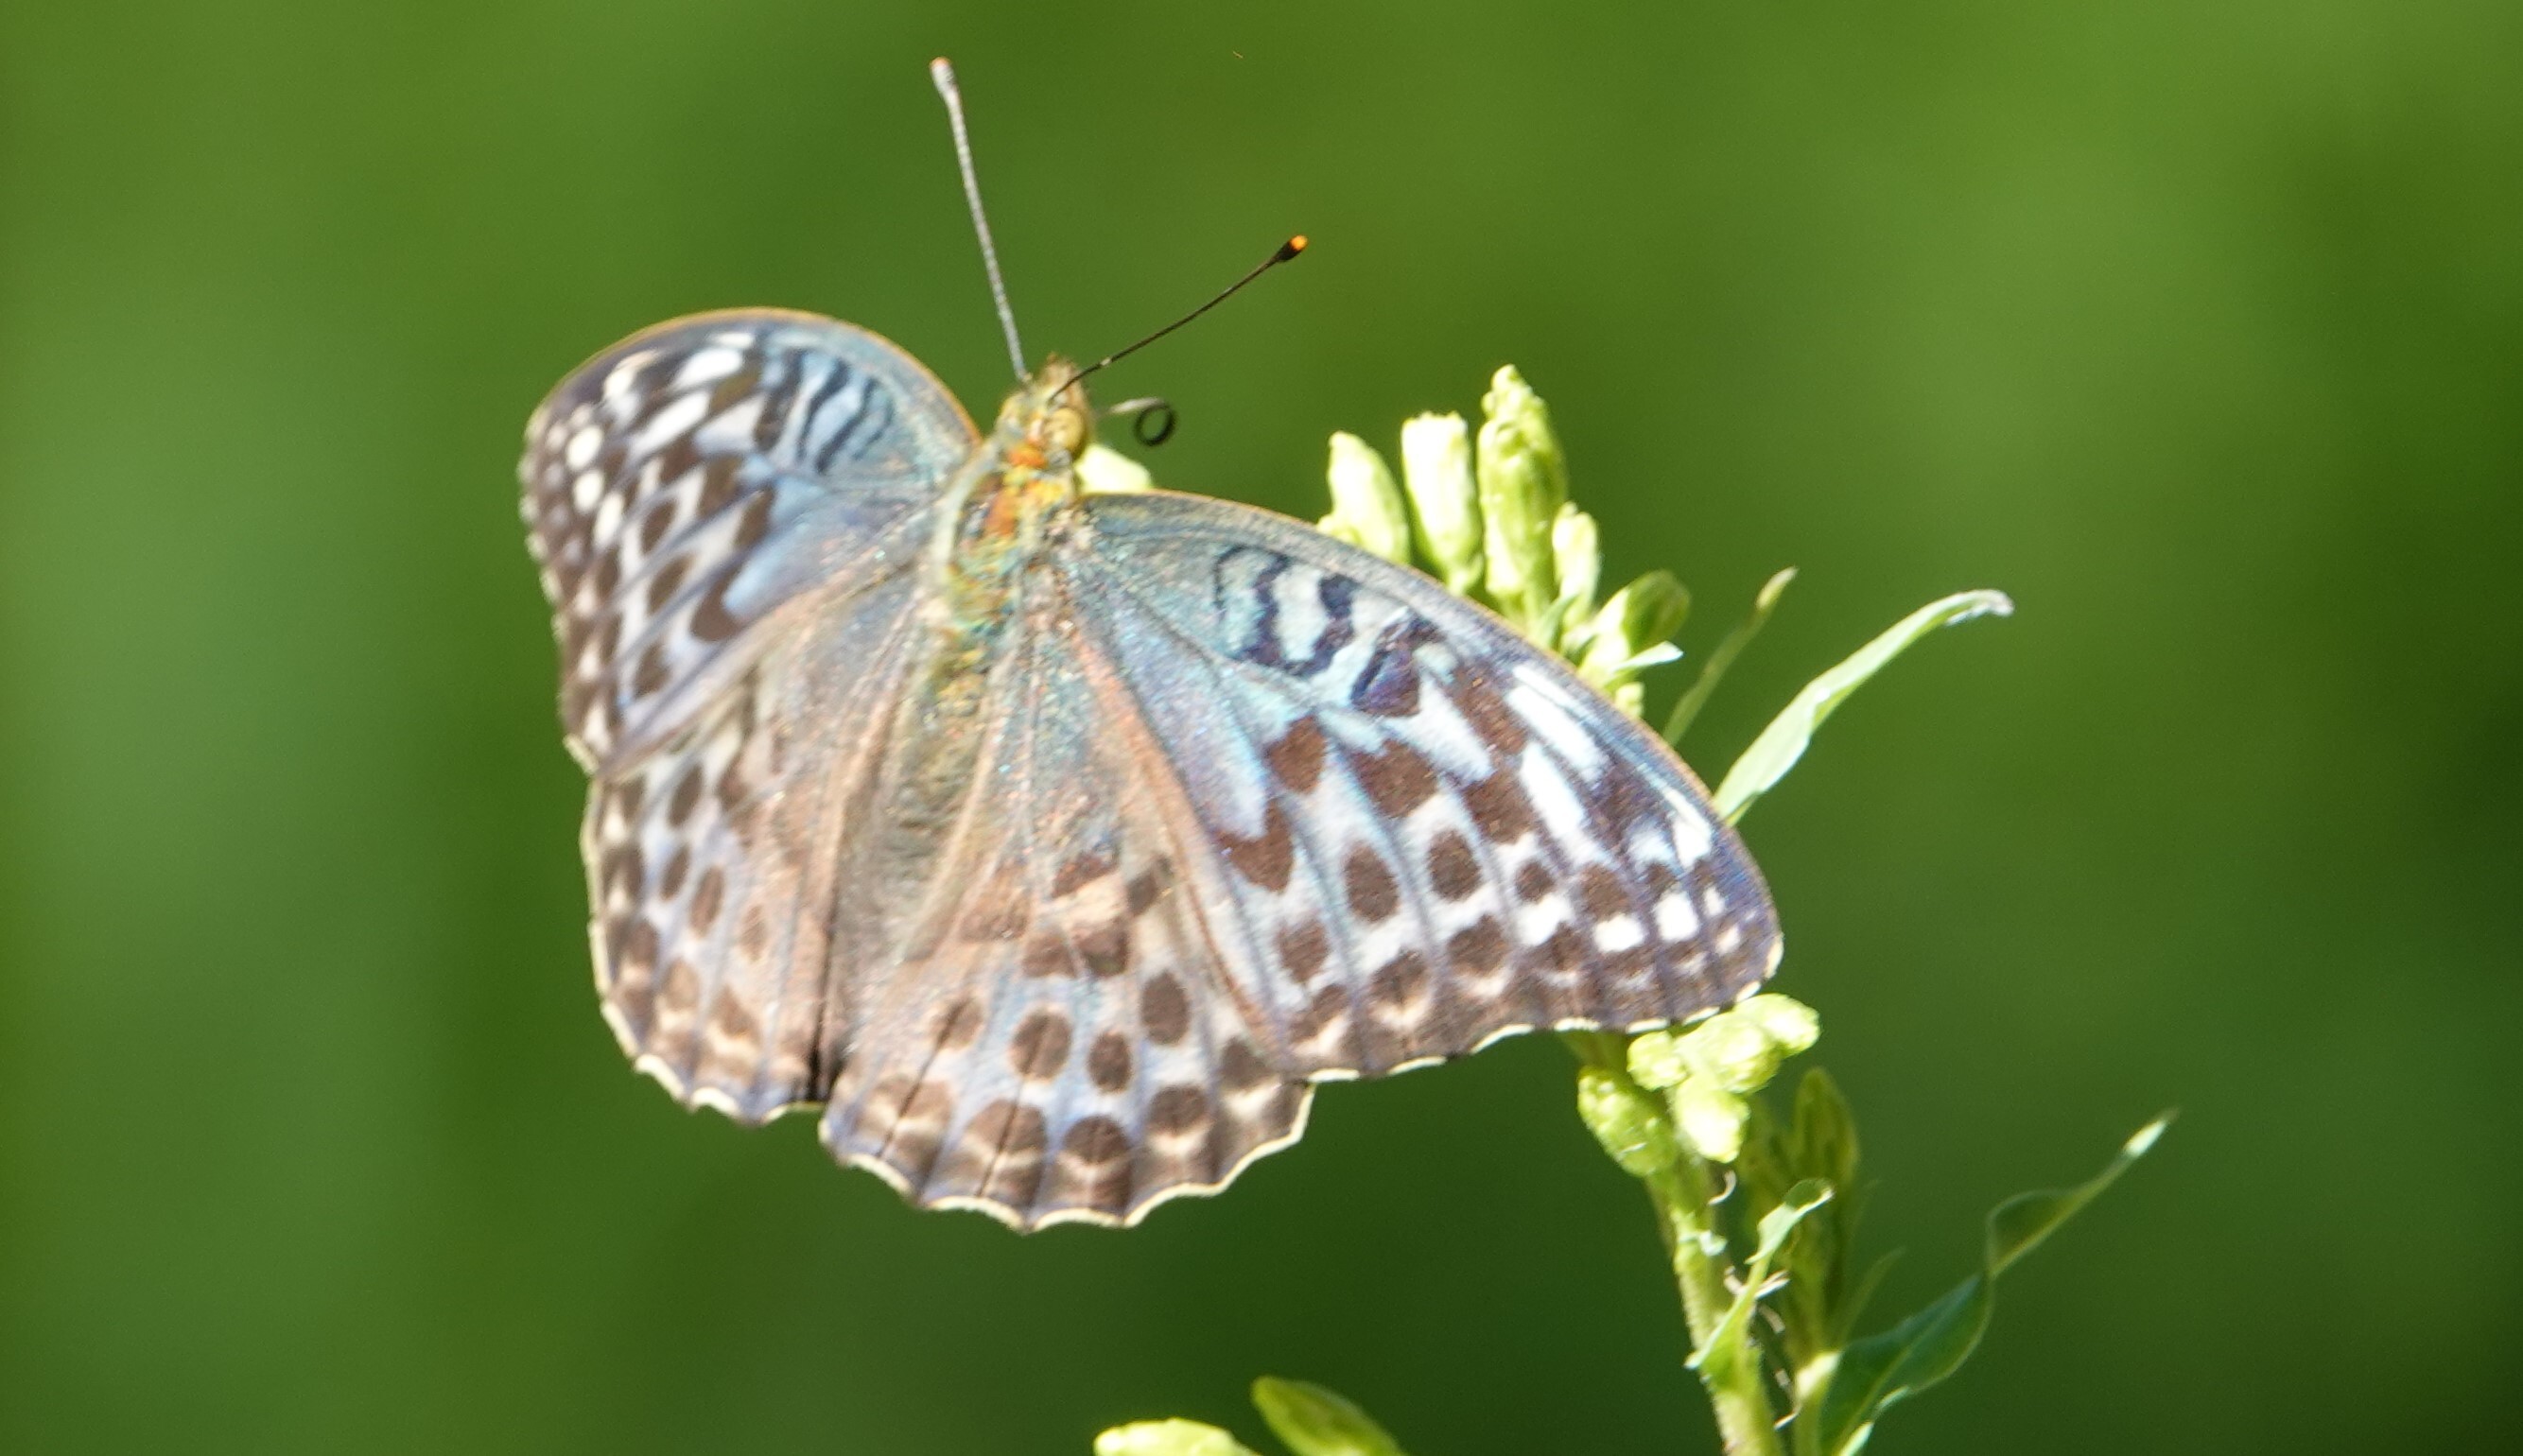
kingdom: Animalia
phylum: Arthropoda
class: Insecta
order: Lepidoptera
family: Nymphalidae
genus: Argynnis
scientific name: Argynnis paphia
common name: Silver-washed fritillary
